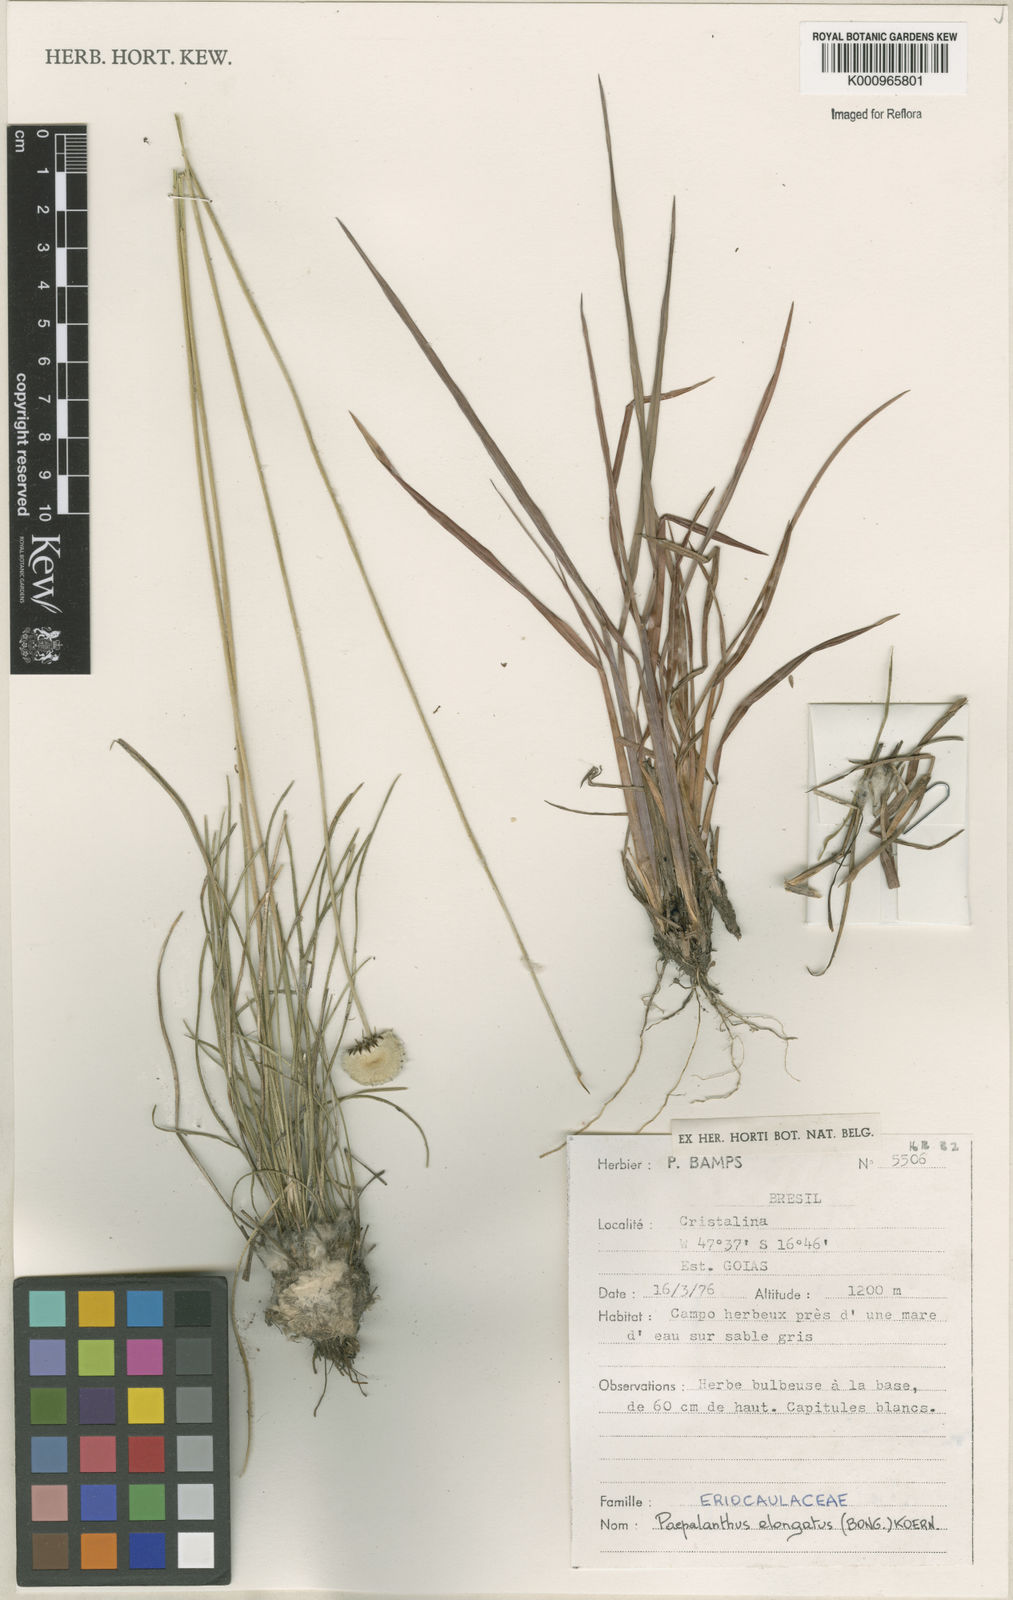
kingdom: Plantae
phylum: Tracheophyta
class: Liliopsida
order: Poales
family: Eriocaulaceae
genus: Paepalanthus
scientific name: Paepalanthus
